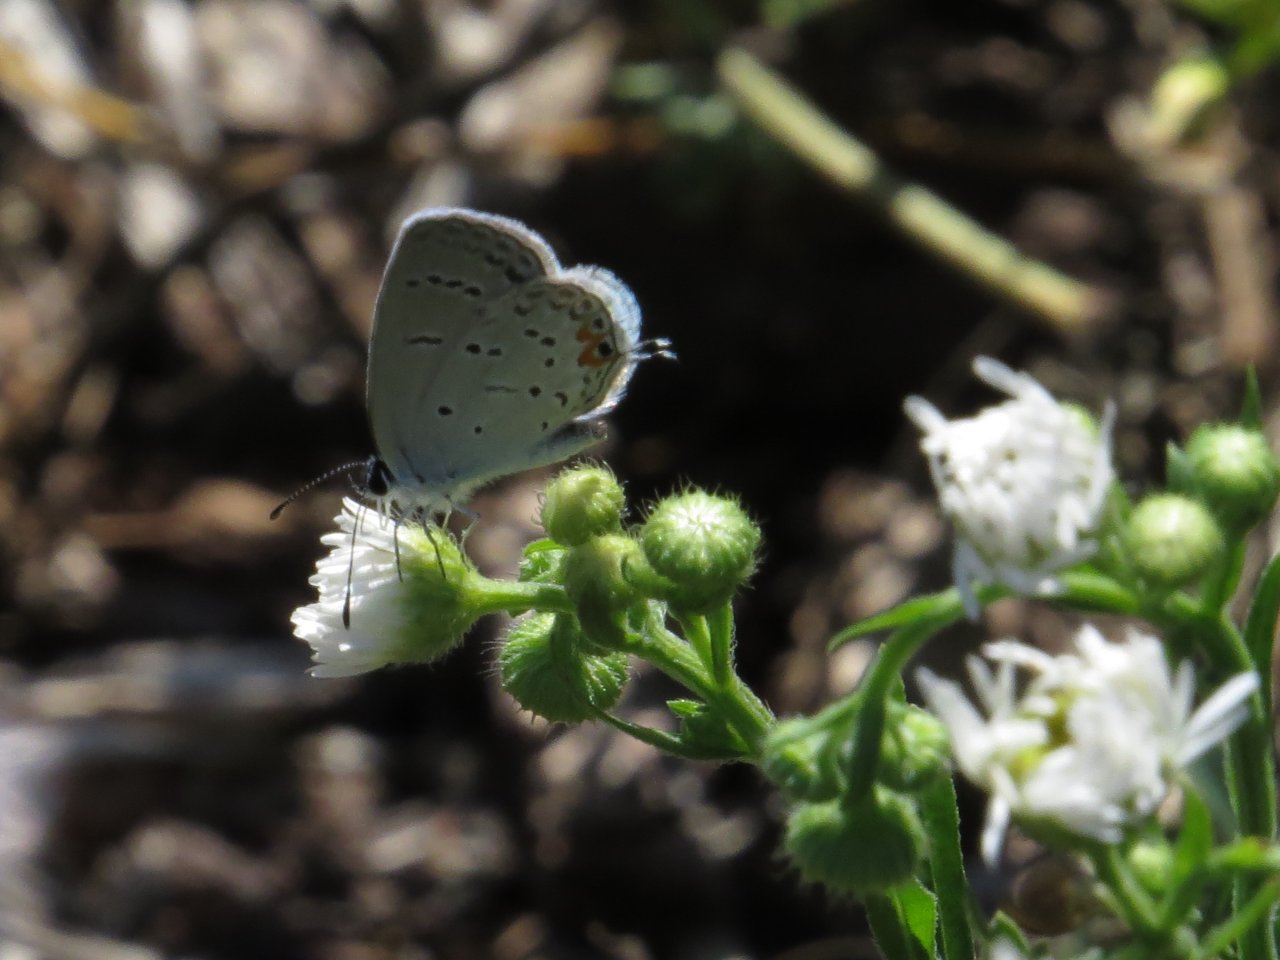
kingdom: Animalia
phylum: Arthropoda
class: Insecta
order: Lepidoptera
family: Lycaenidae
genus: Elkalyce
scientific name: Elkalyce comyntas
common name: Eastern Tailed-Blue
